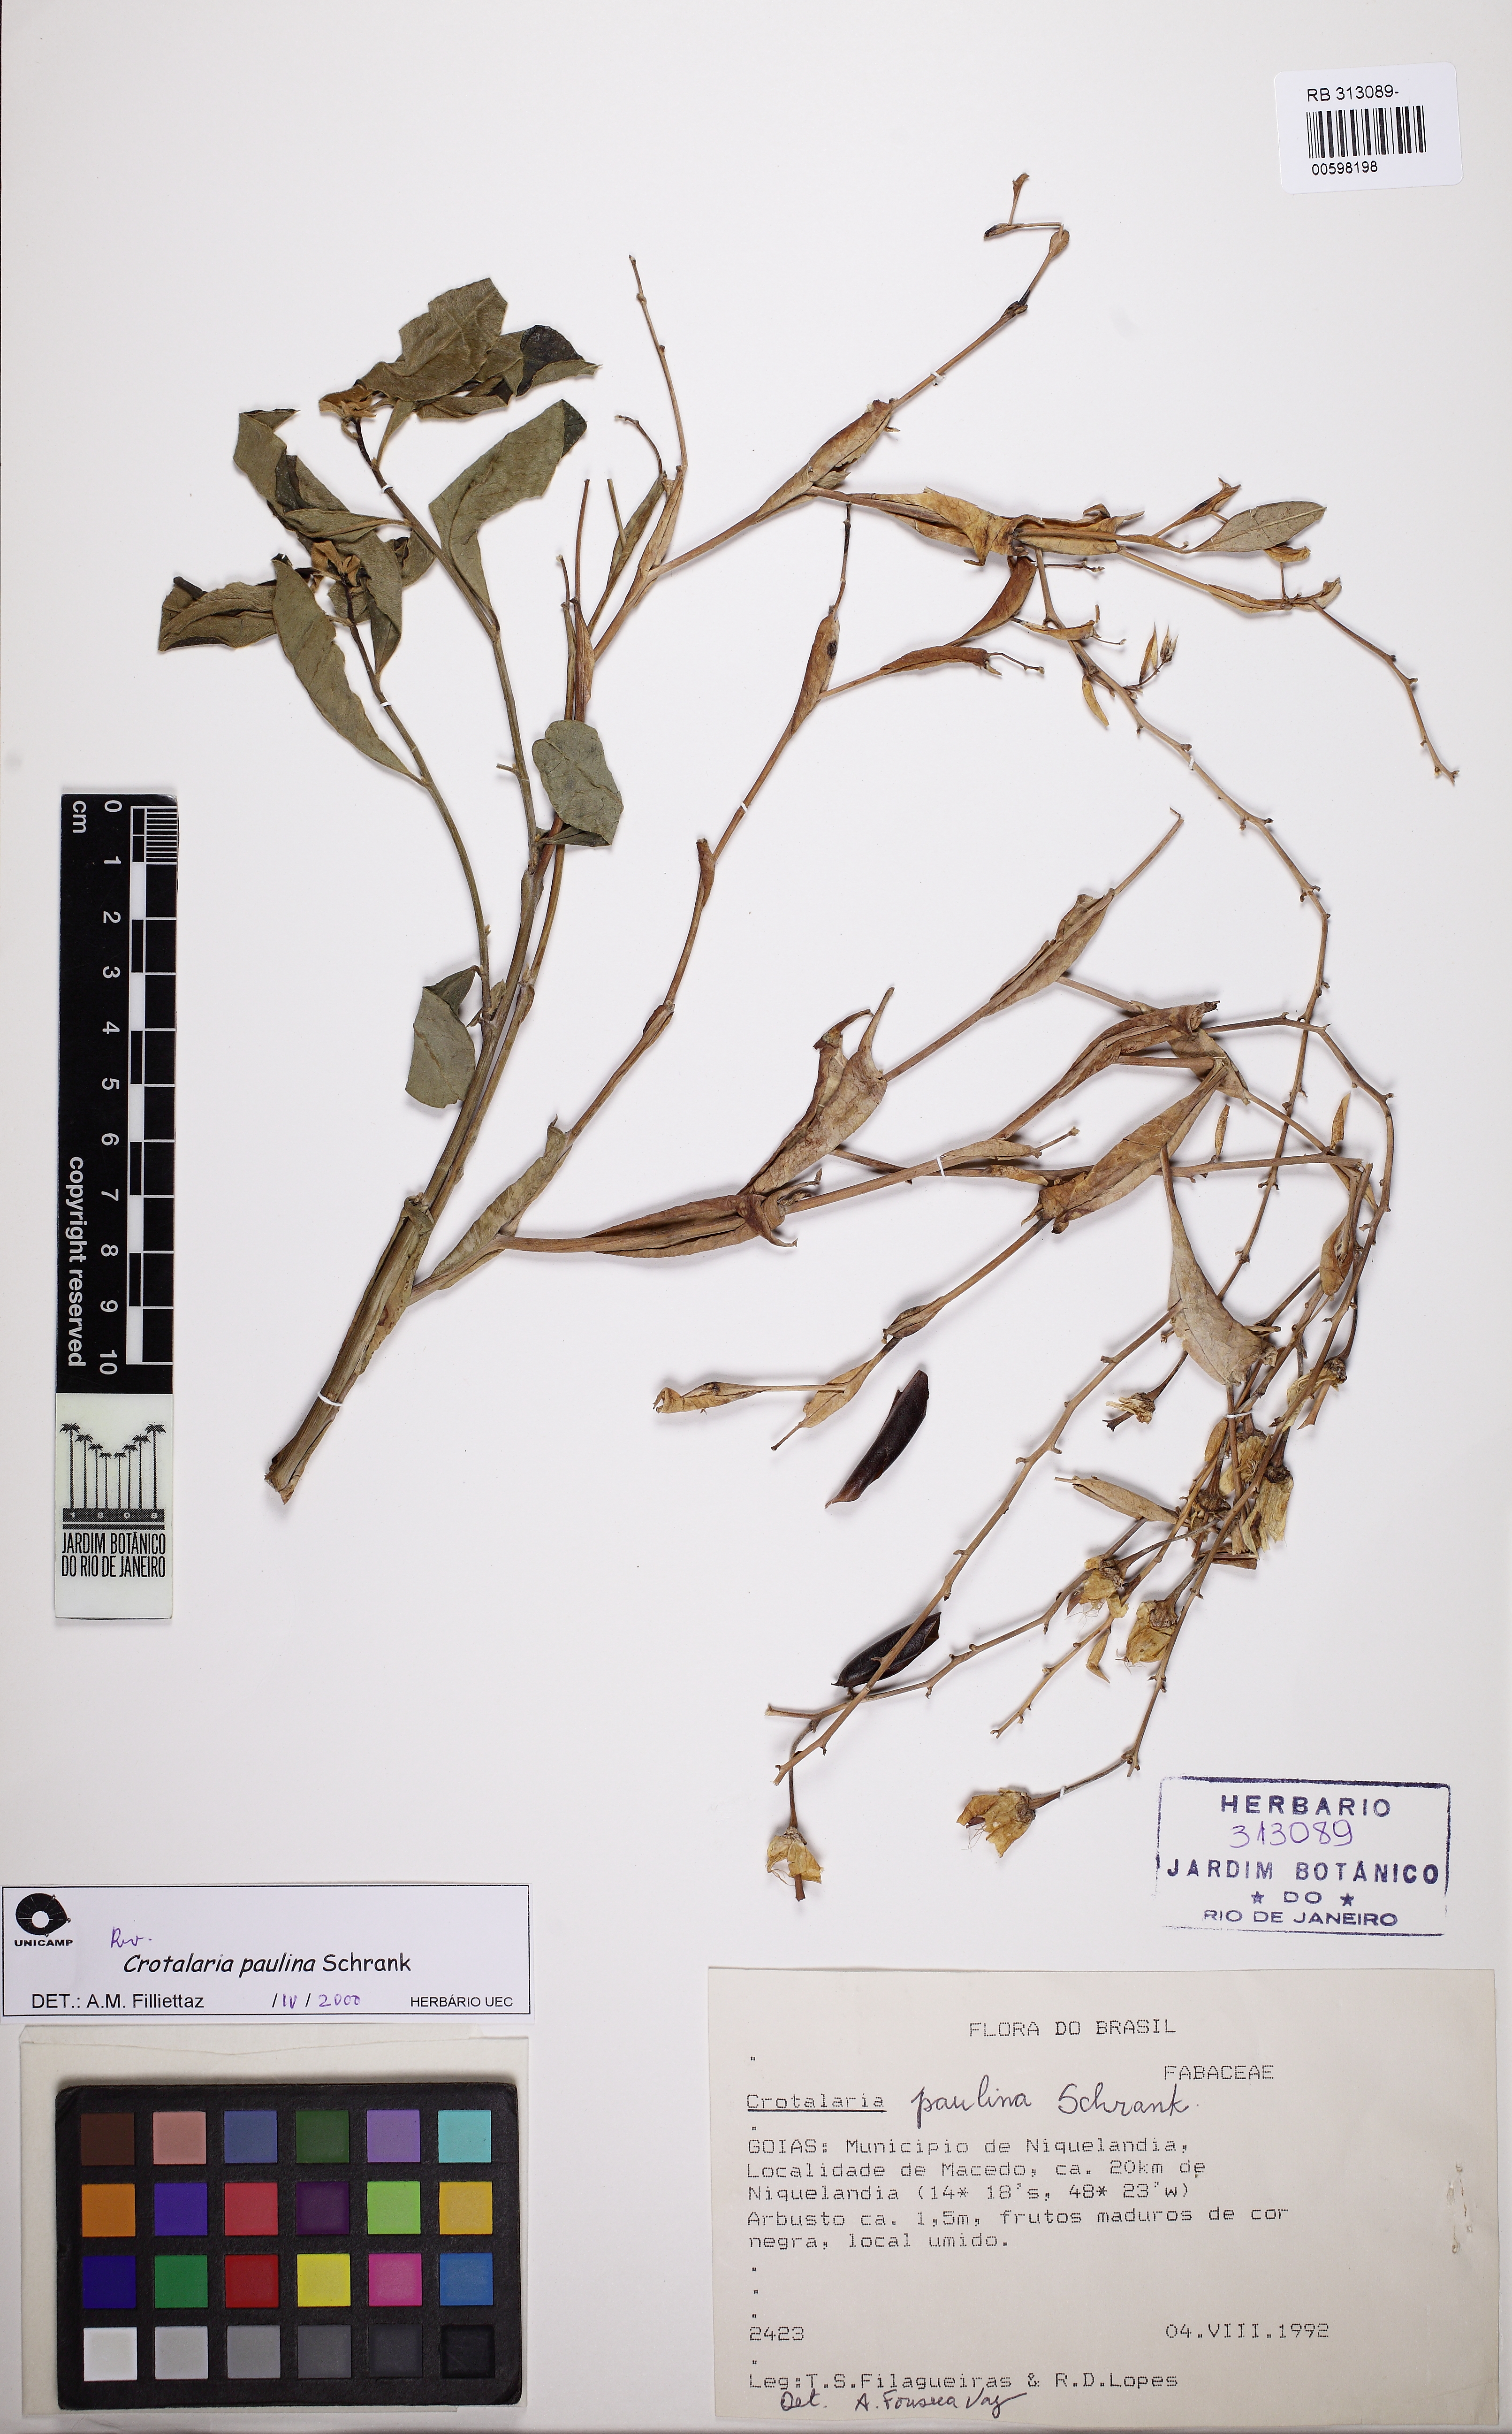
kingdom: Plantae
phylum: Tracheophyta
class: Magnoliopsida
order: Fabales
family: Fabaceae
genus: Crotalaria
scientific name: Crotalaria paulina
